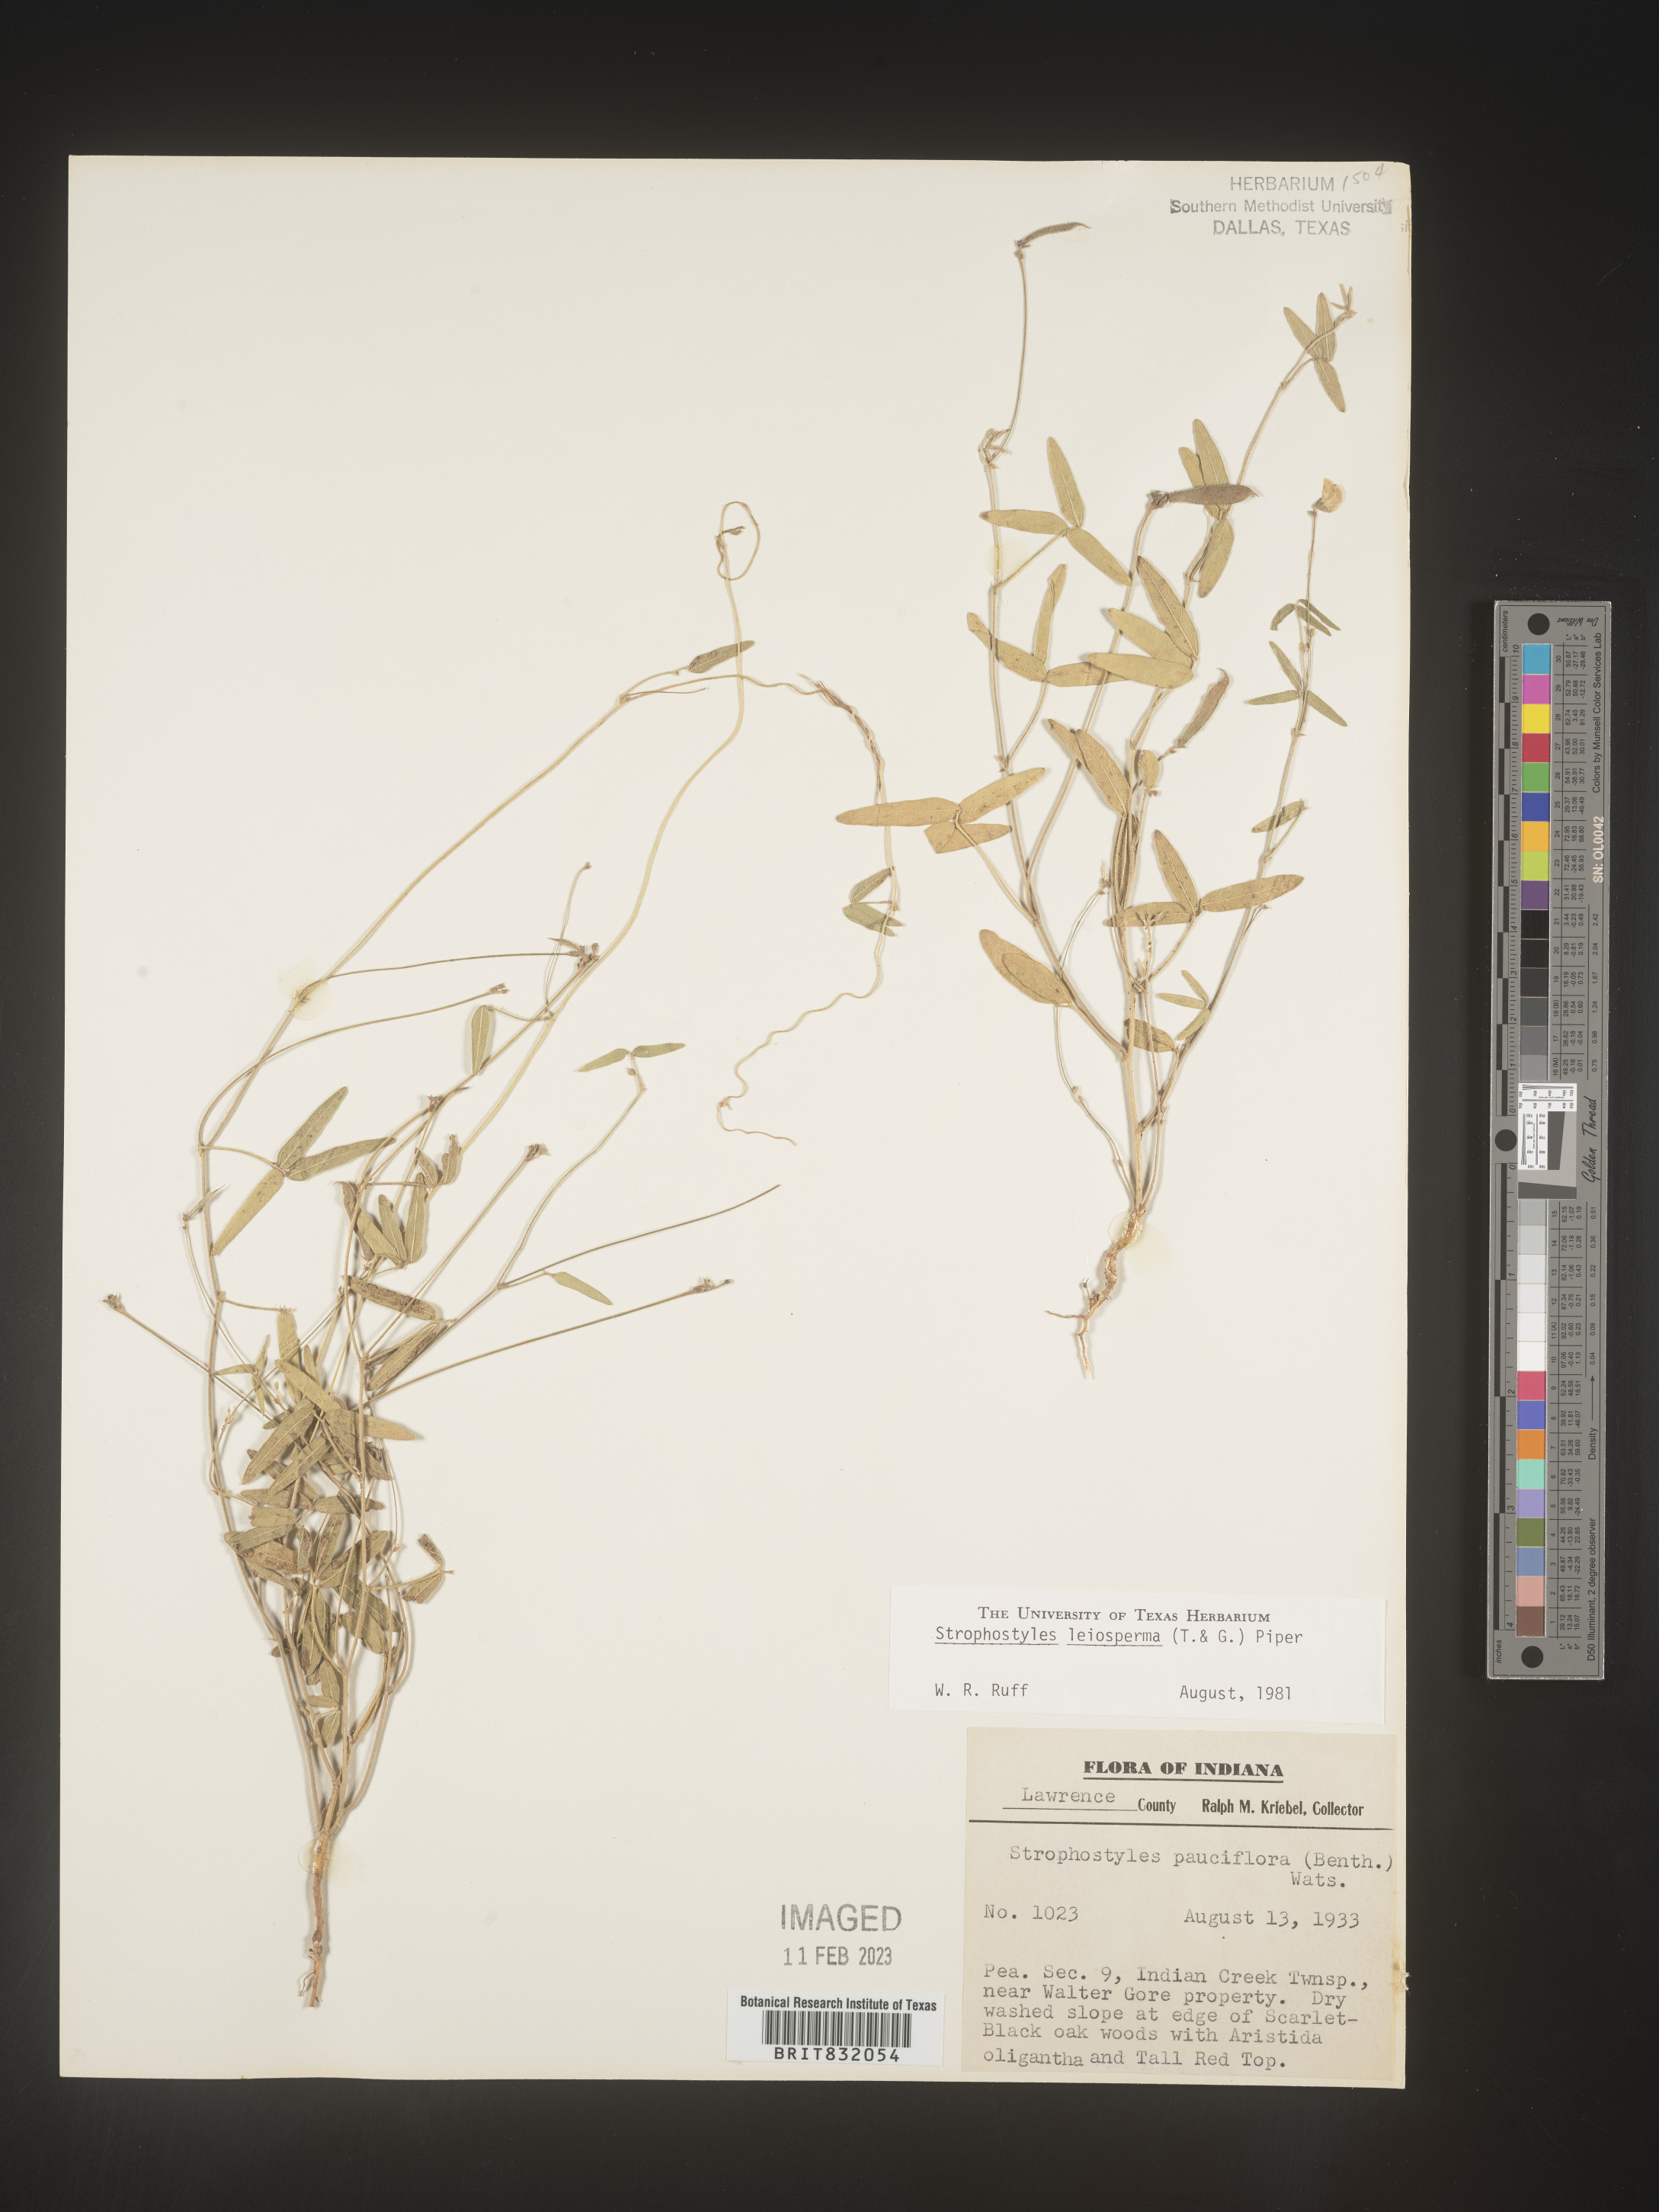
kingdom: Plantae
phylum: Tracheophyta
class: Magnoliopsida
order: Fabales
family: Fabaceae
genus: Strophostyles
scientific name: Strophostyles leiosperma
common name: Smooth-seed wild bean
